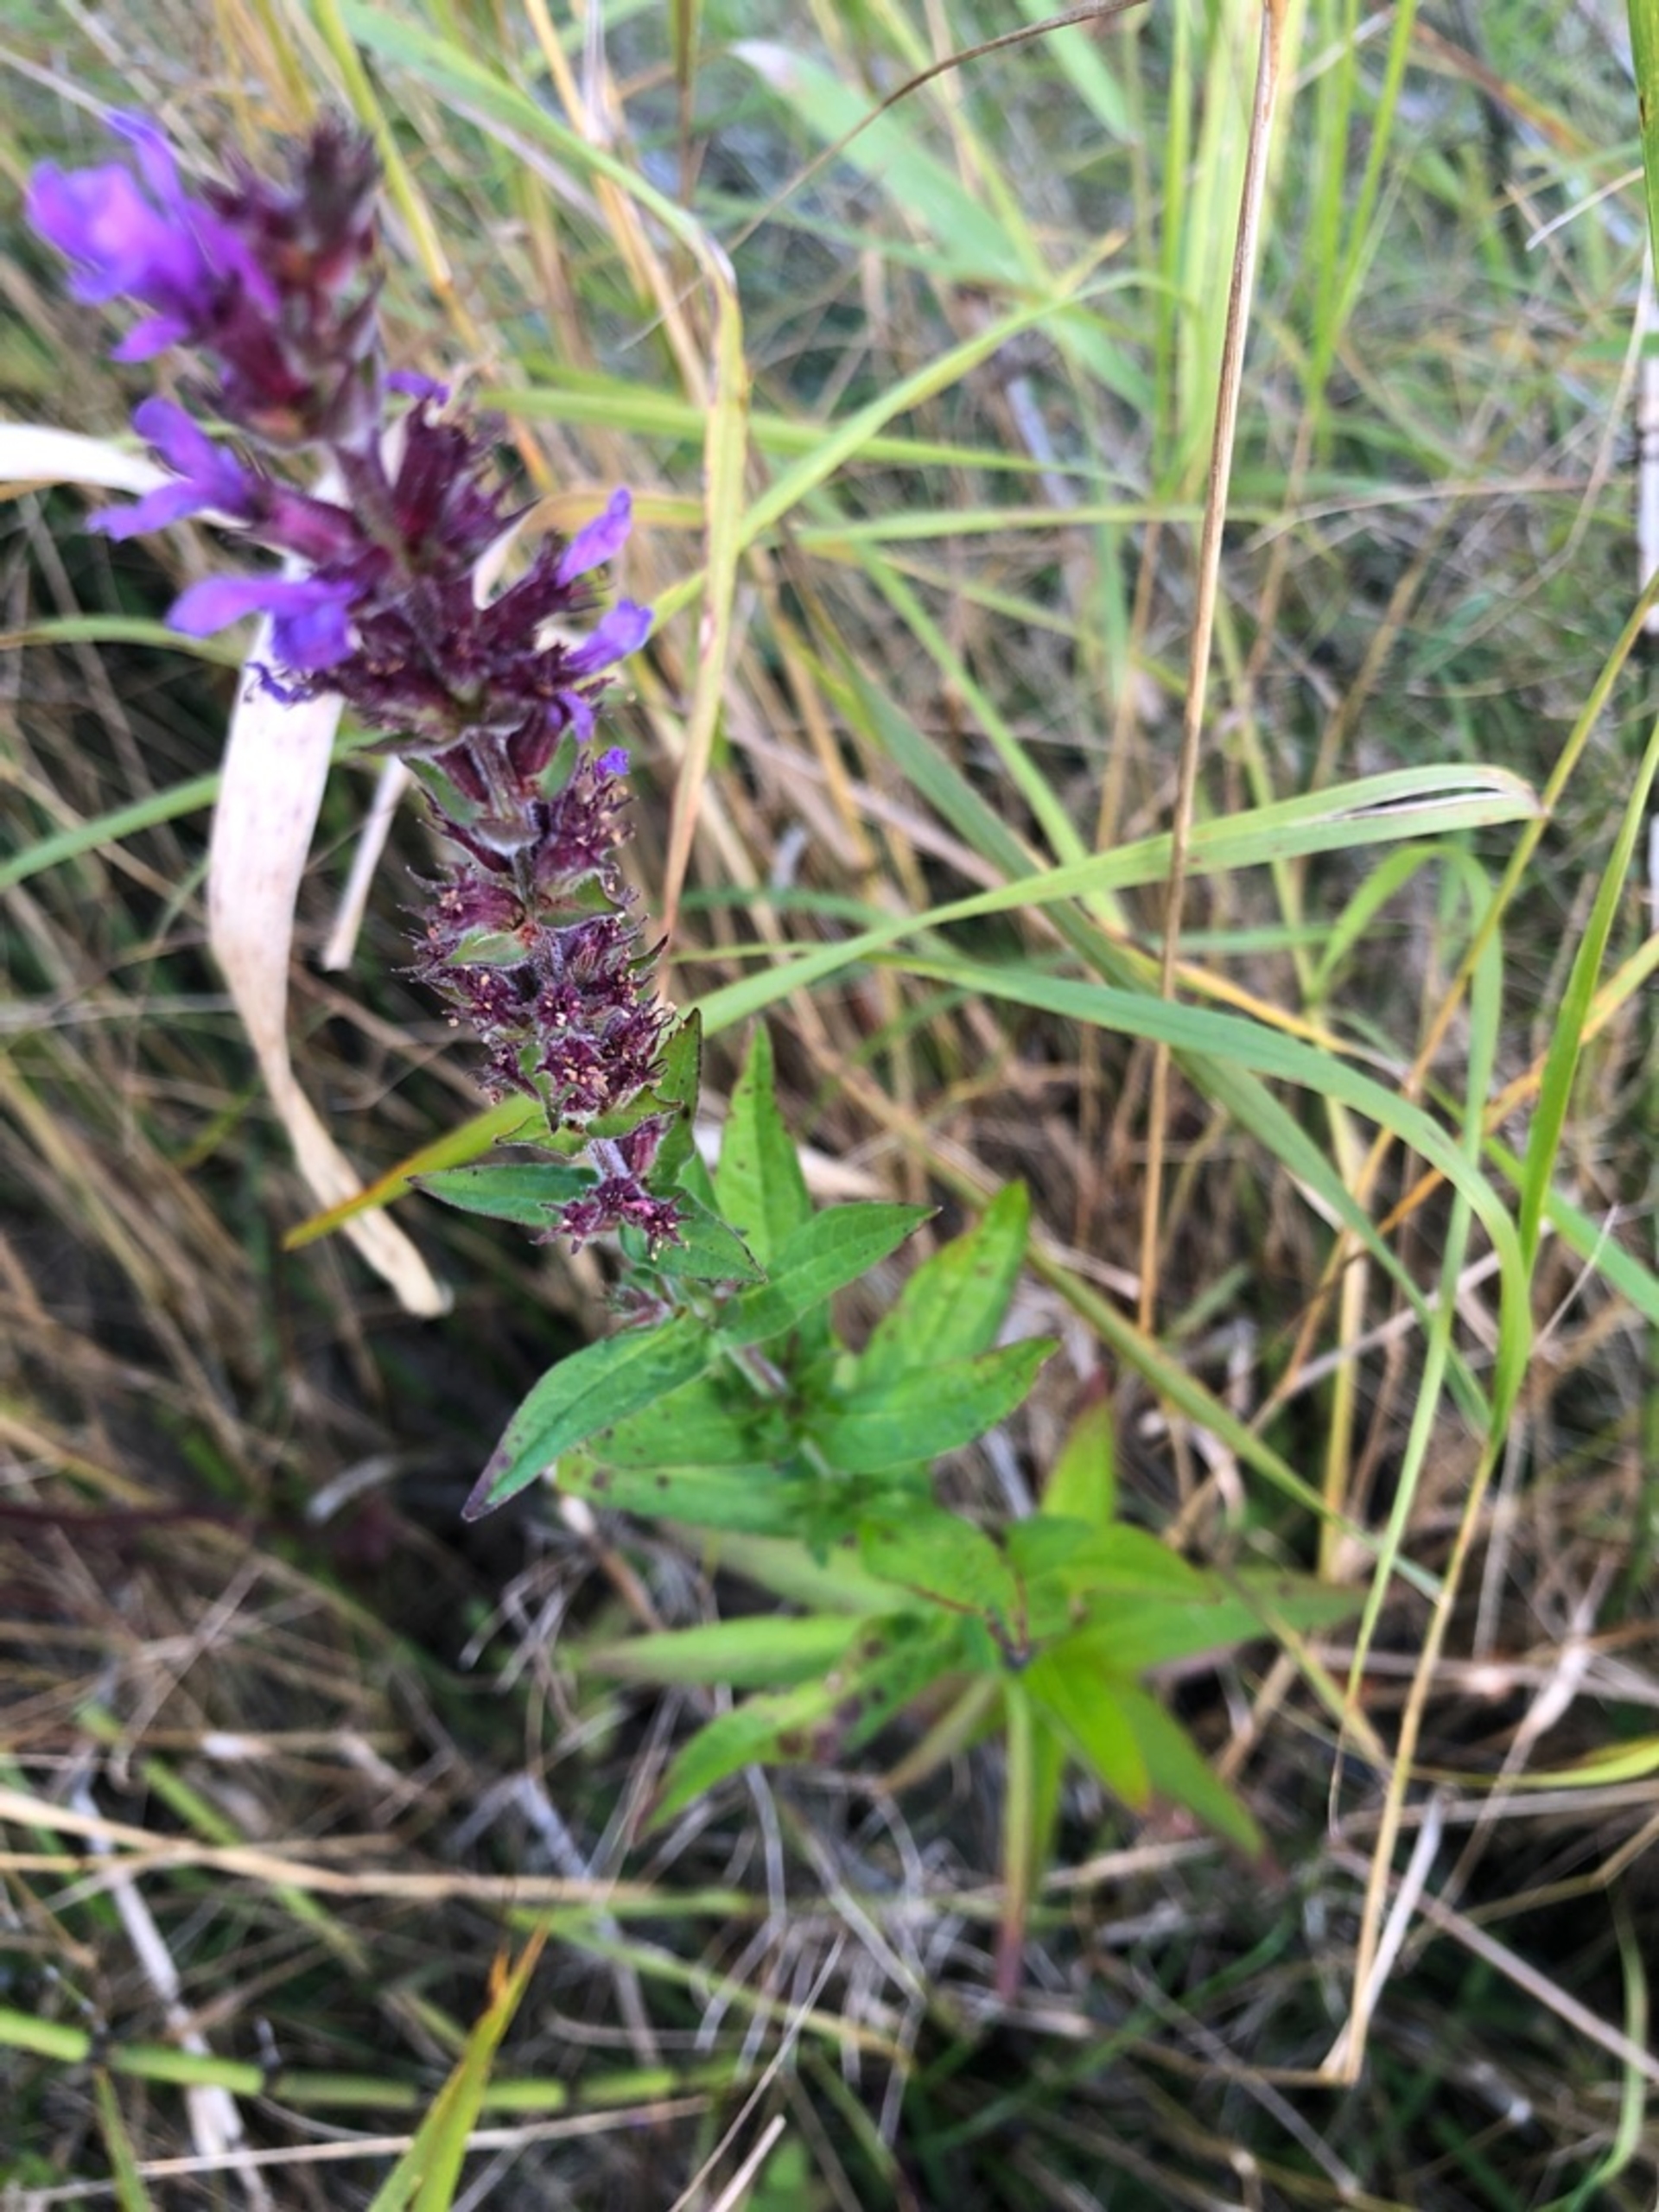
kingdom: Plantae
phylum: Tracheophyta
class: Magnoliopsida
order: Myrtales
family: Lythraceae
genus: Lythrum
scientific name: Lythrum salicaria
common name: Kattehale
